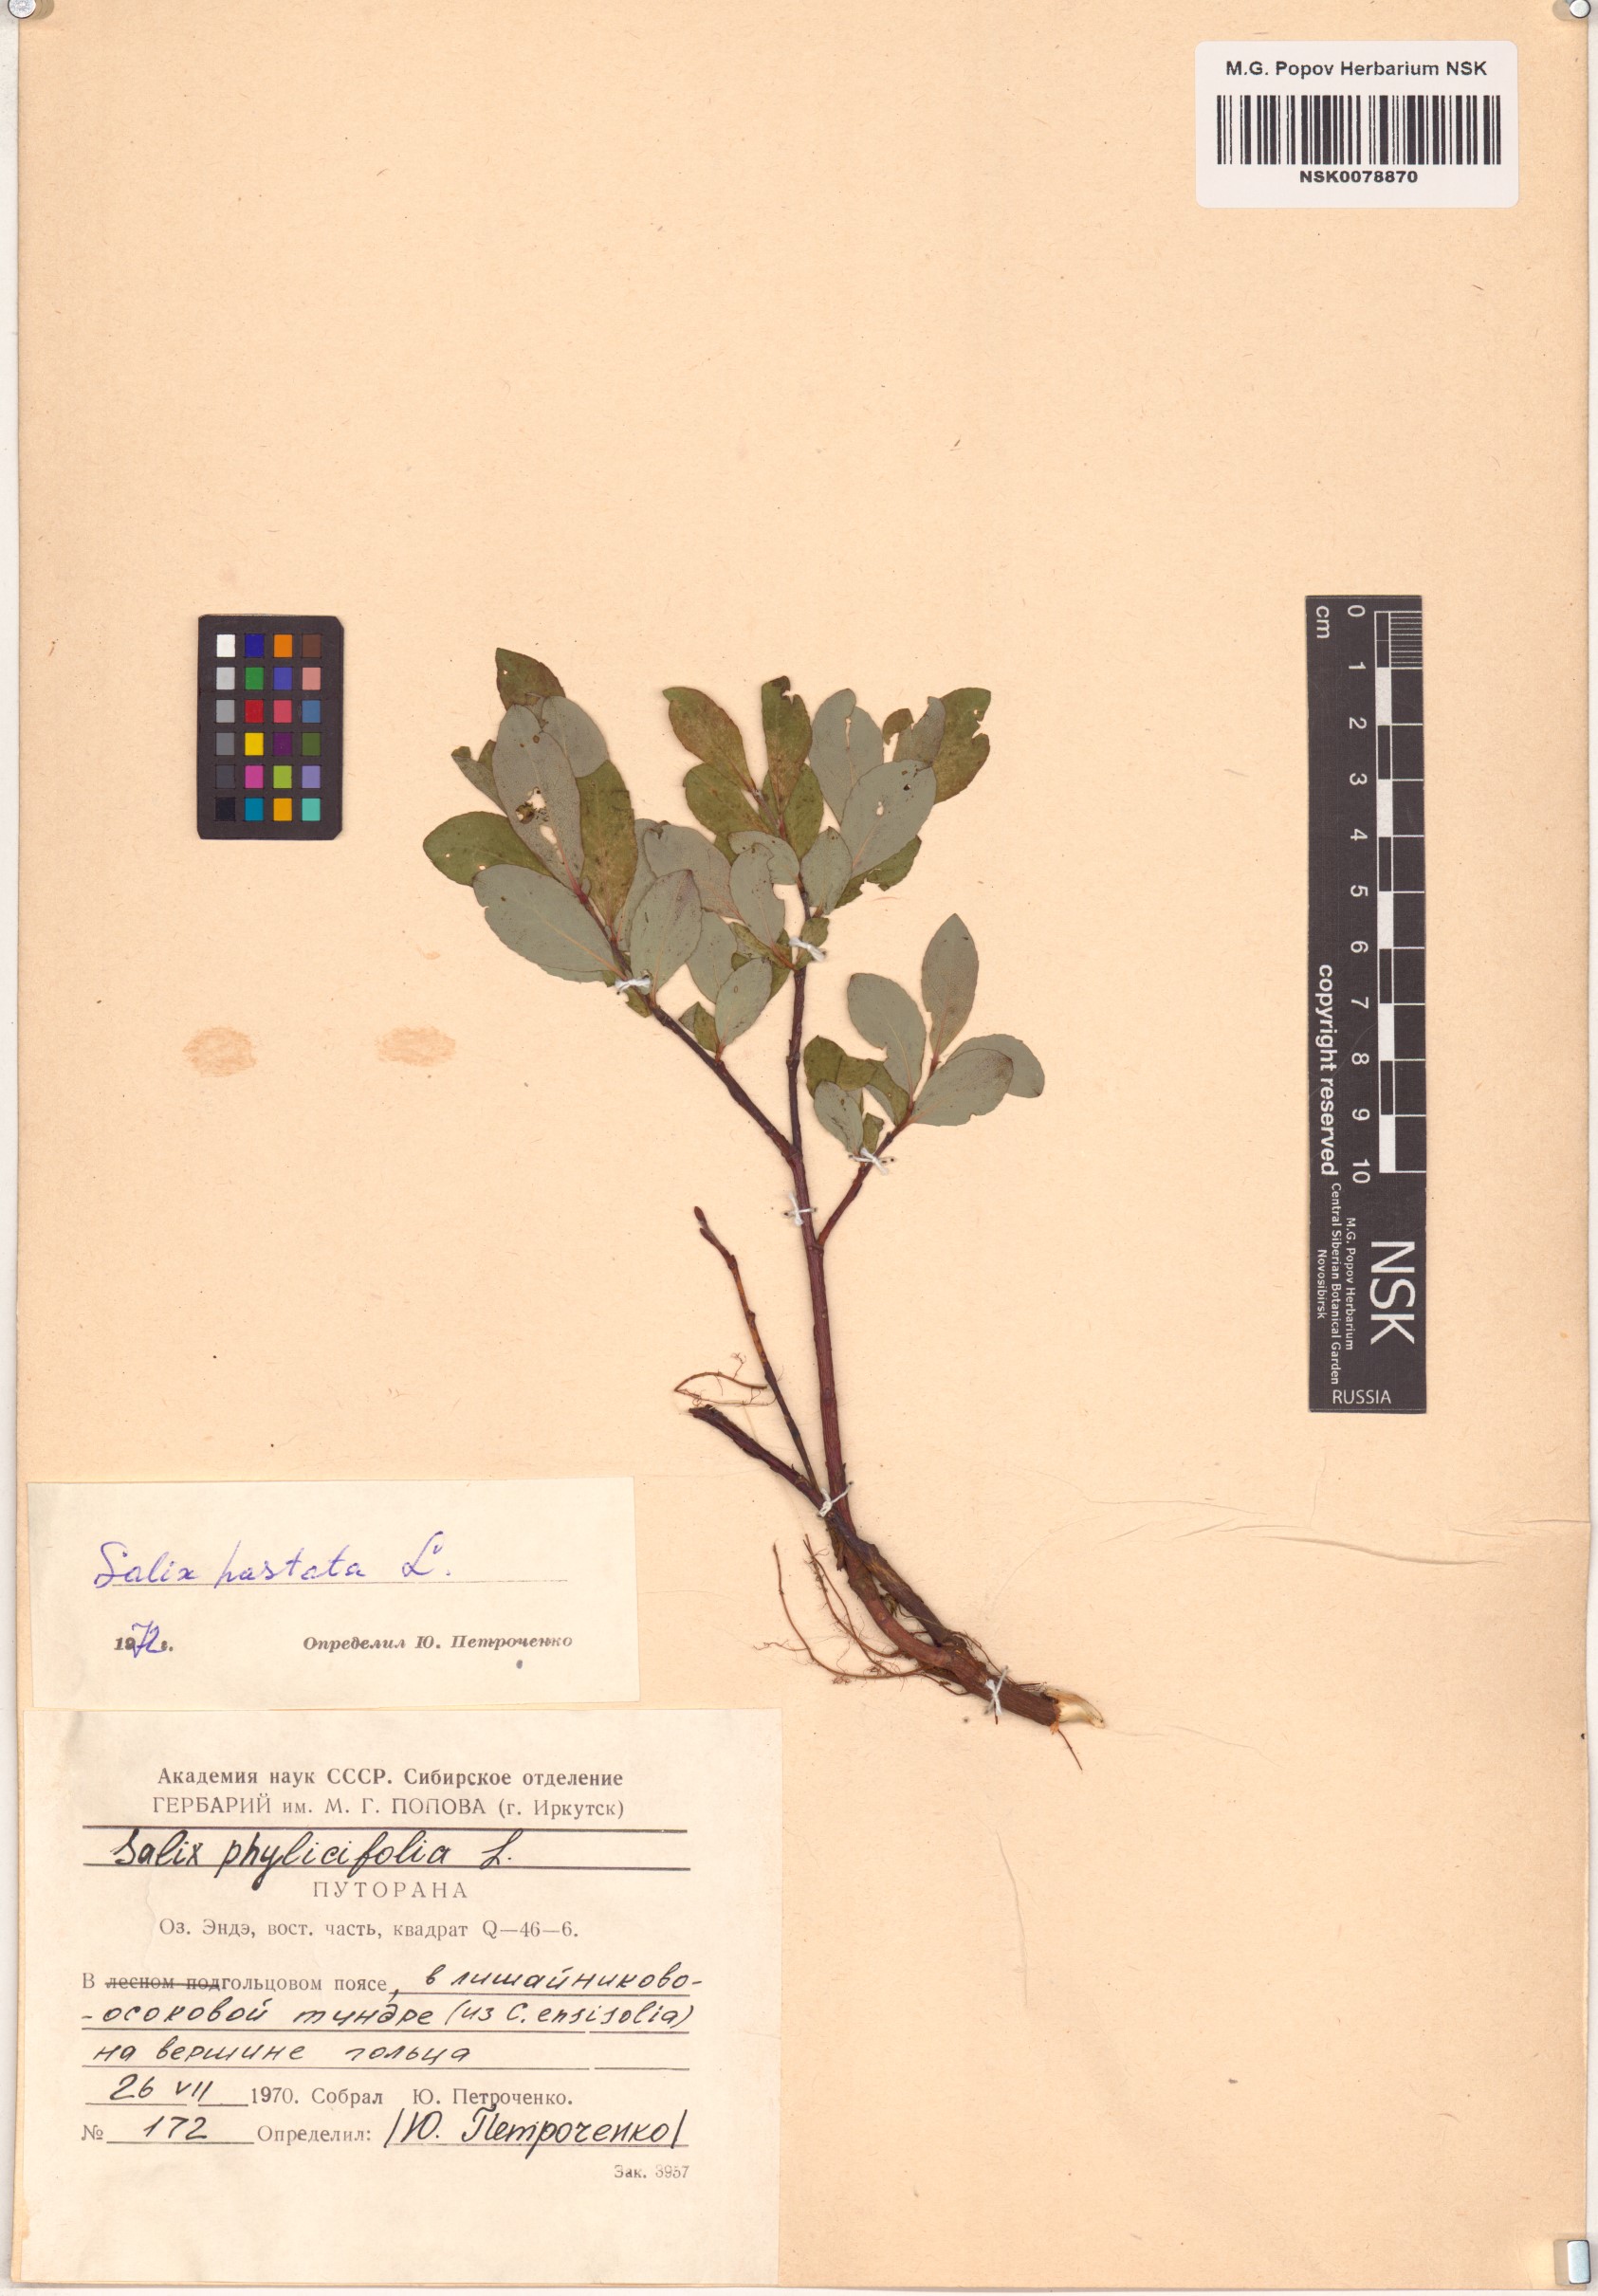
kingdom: Plantae
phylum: Tracheophyta
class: Magnoliopsida
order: Malpighiales
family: Salicaceae
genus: Salix
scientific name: Salix hastata
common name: Halberd willow
